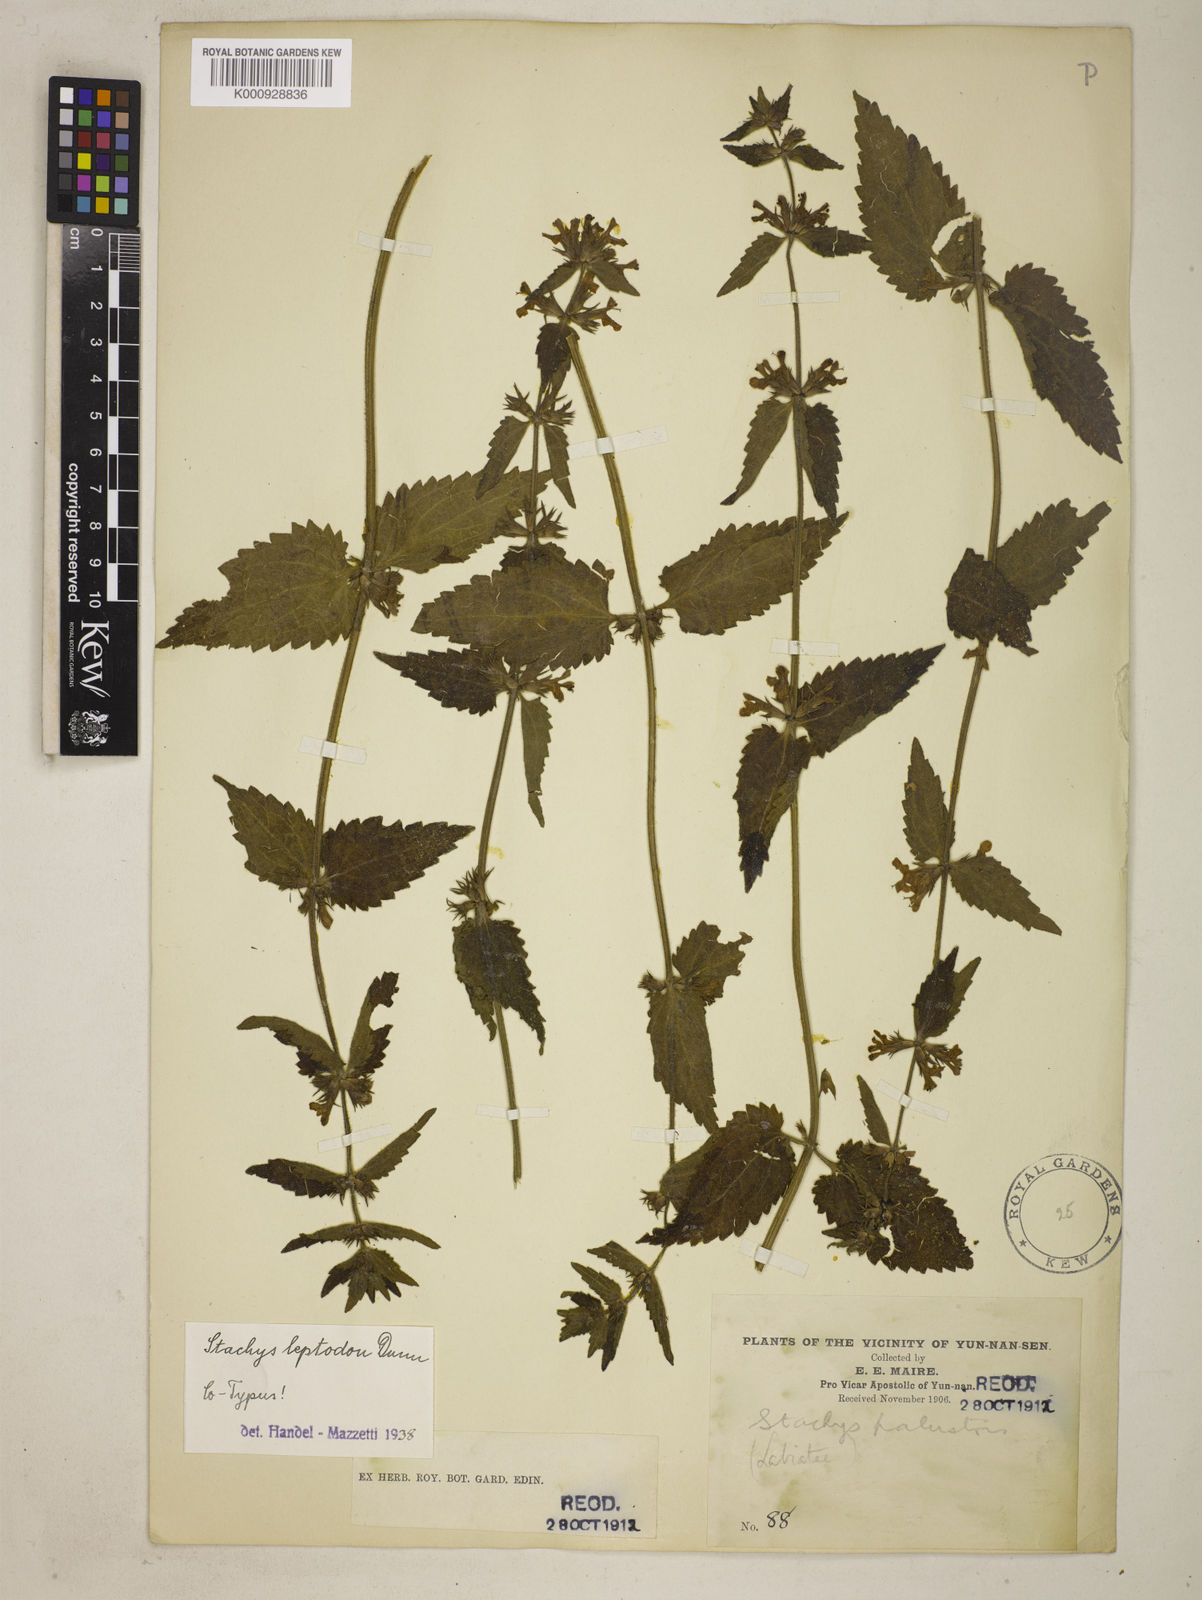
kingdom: Plantae
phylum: Tracheophyta
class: Magnoliopsida
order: Lamiales
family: Lamiaceae
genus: Stachys
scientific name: Stachys
